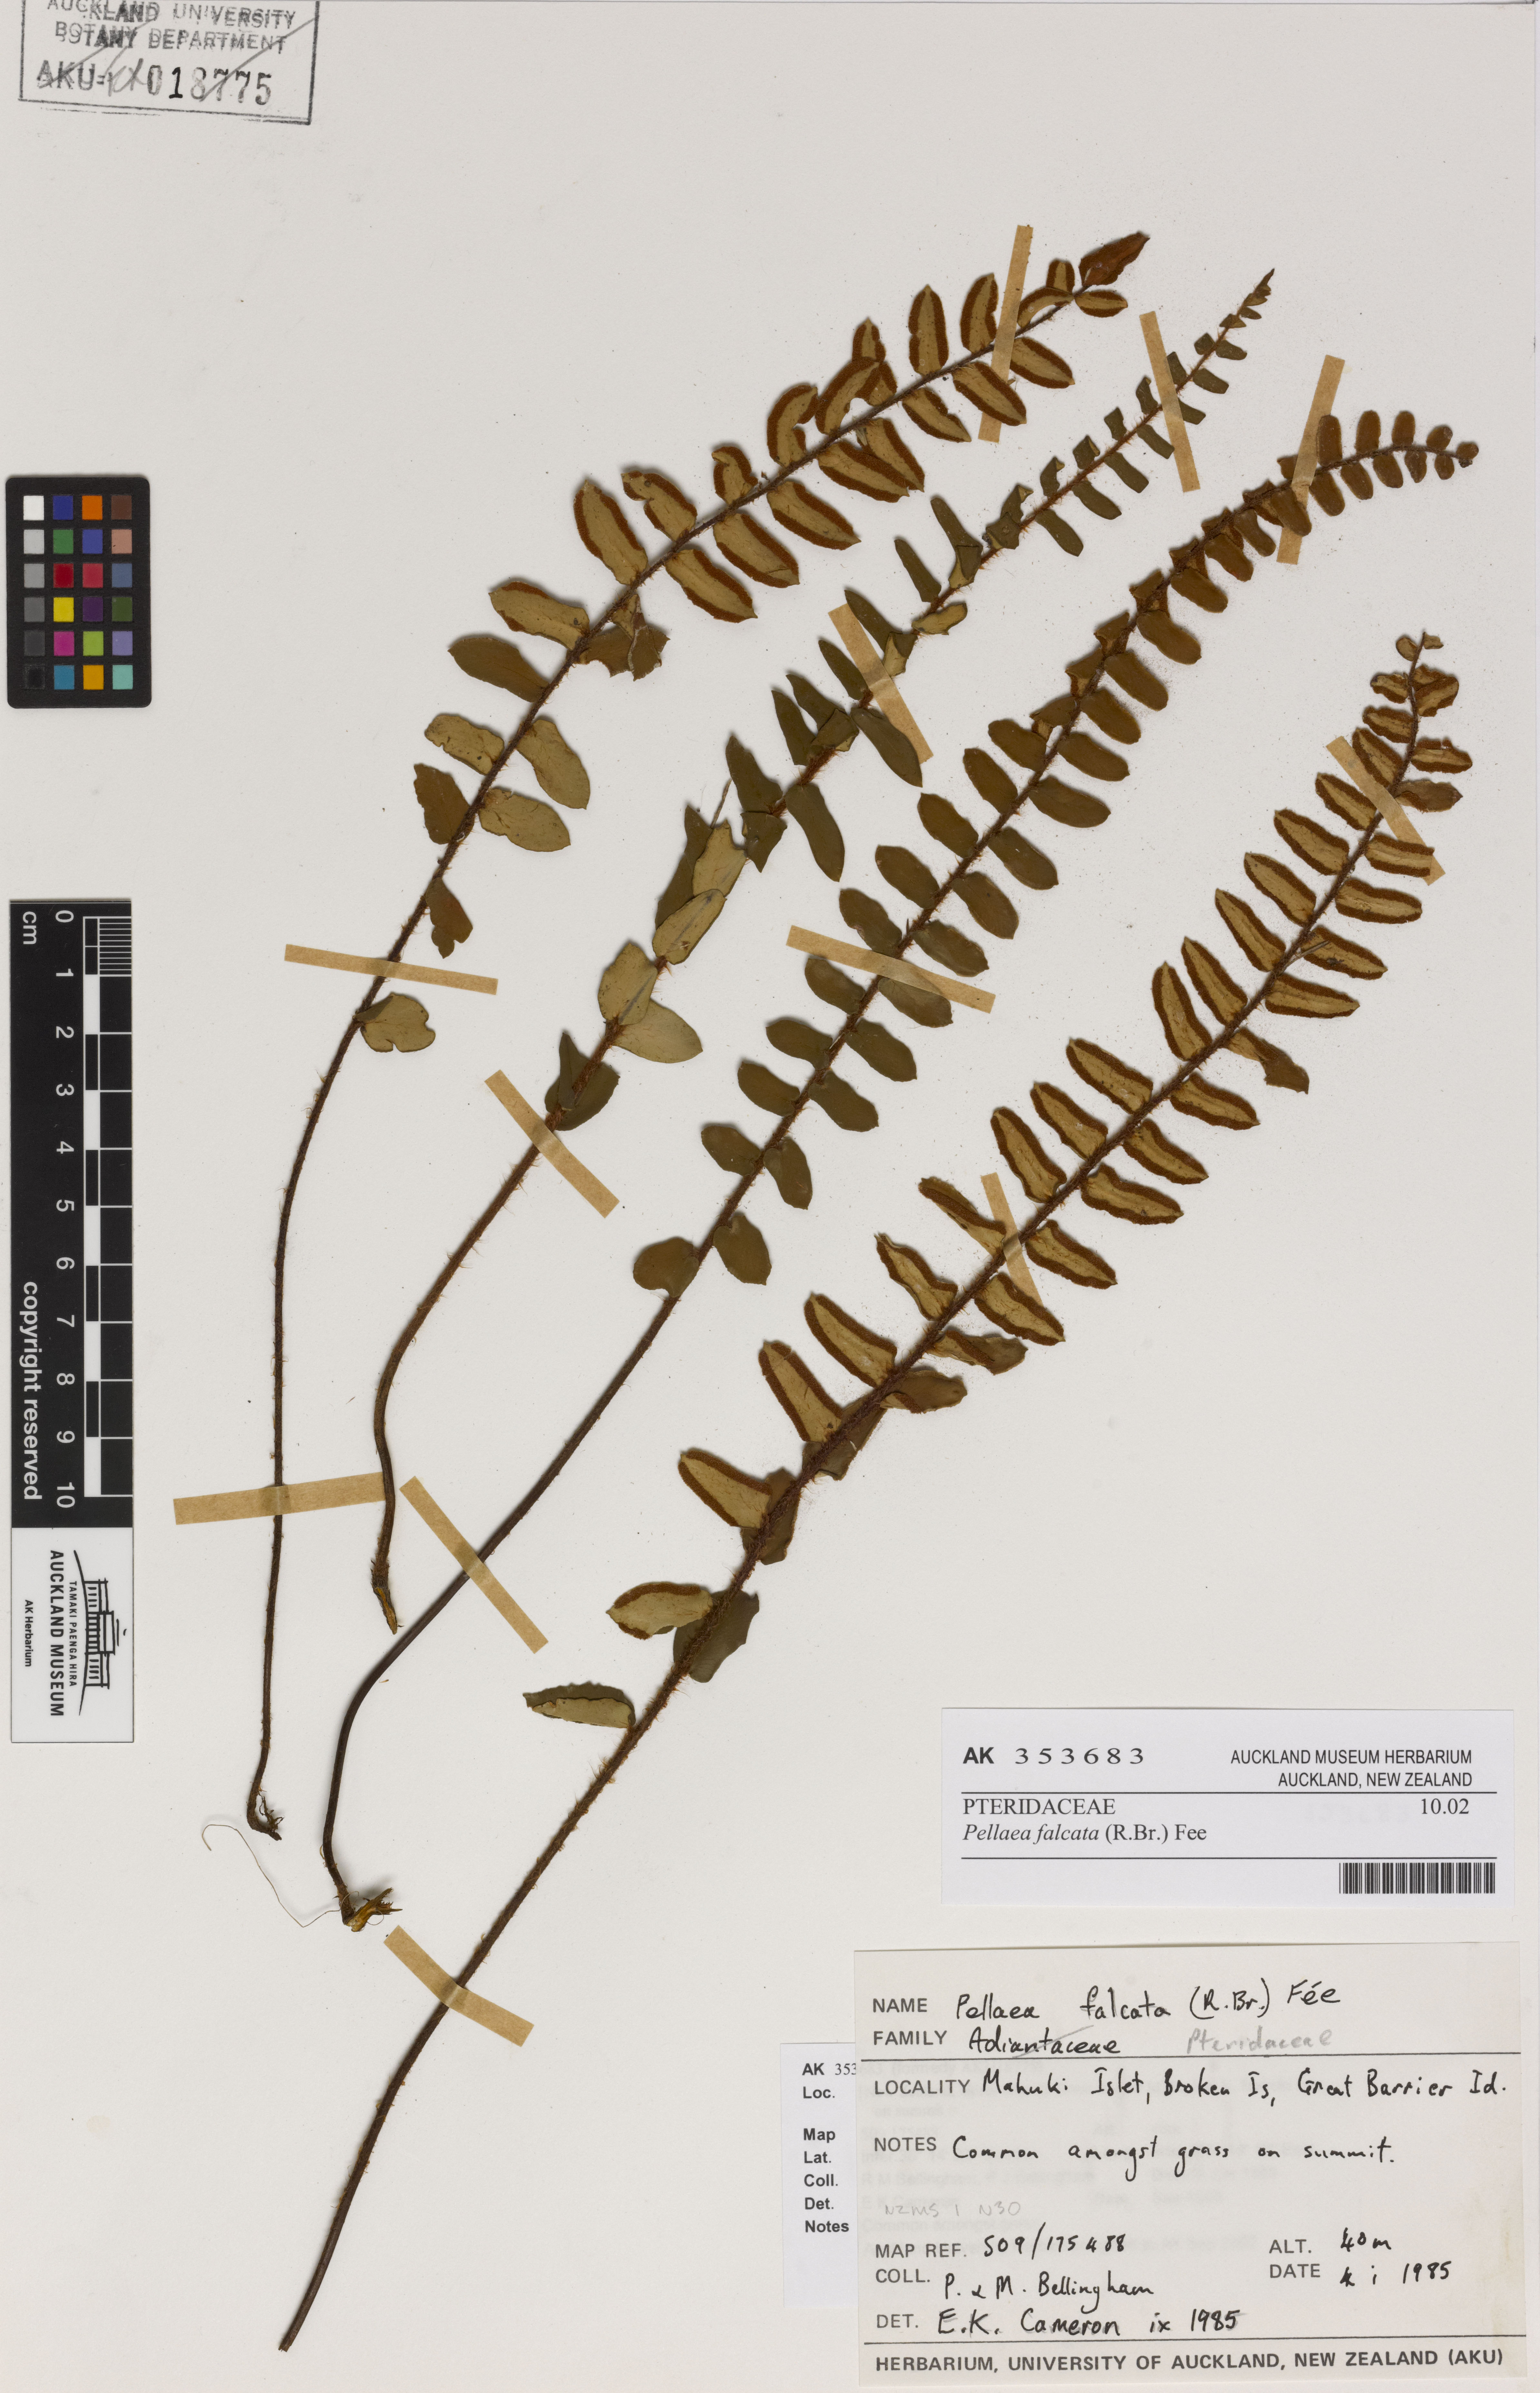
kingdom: Plantae
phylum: Tracheophyta
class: Polypodiopsida
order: Polypodiales
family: Pteridaceae
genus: Pellaea
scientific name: Pellaea falcata
